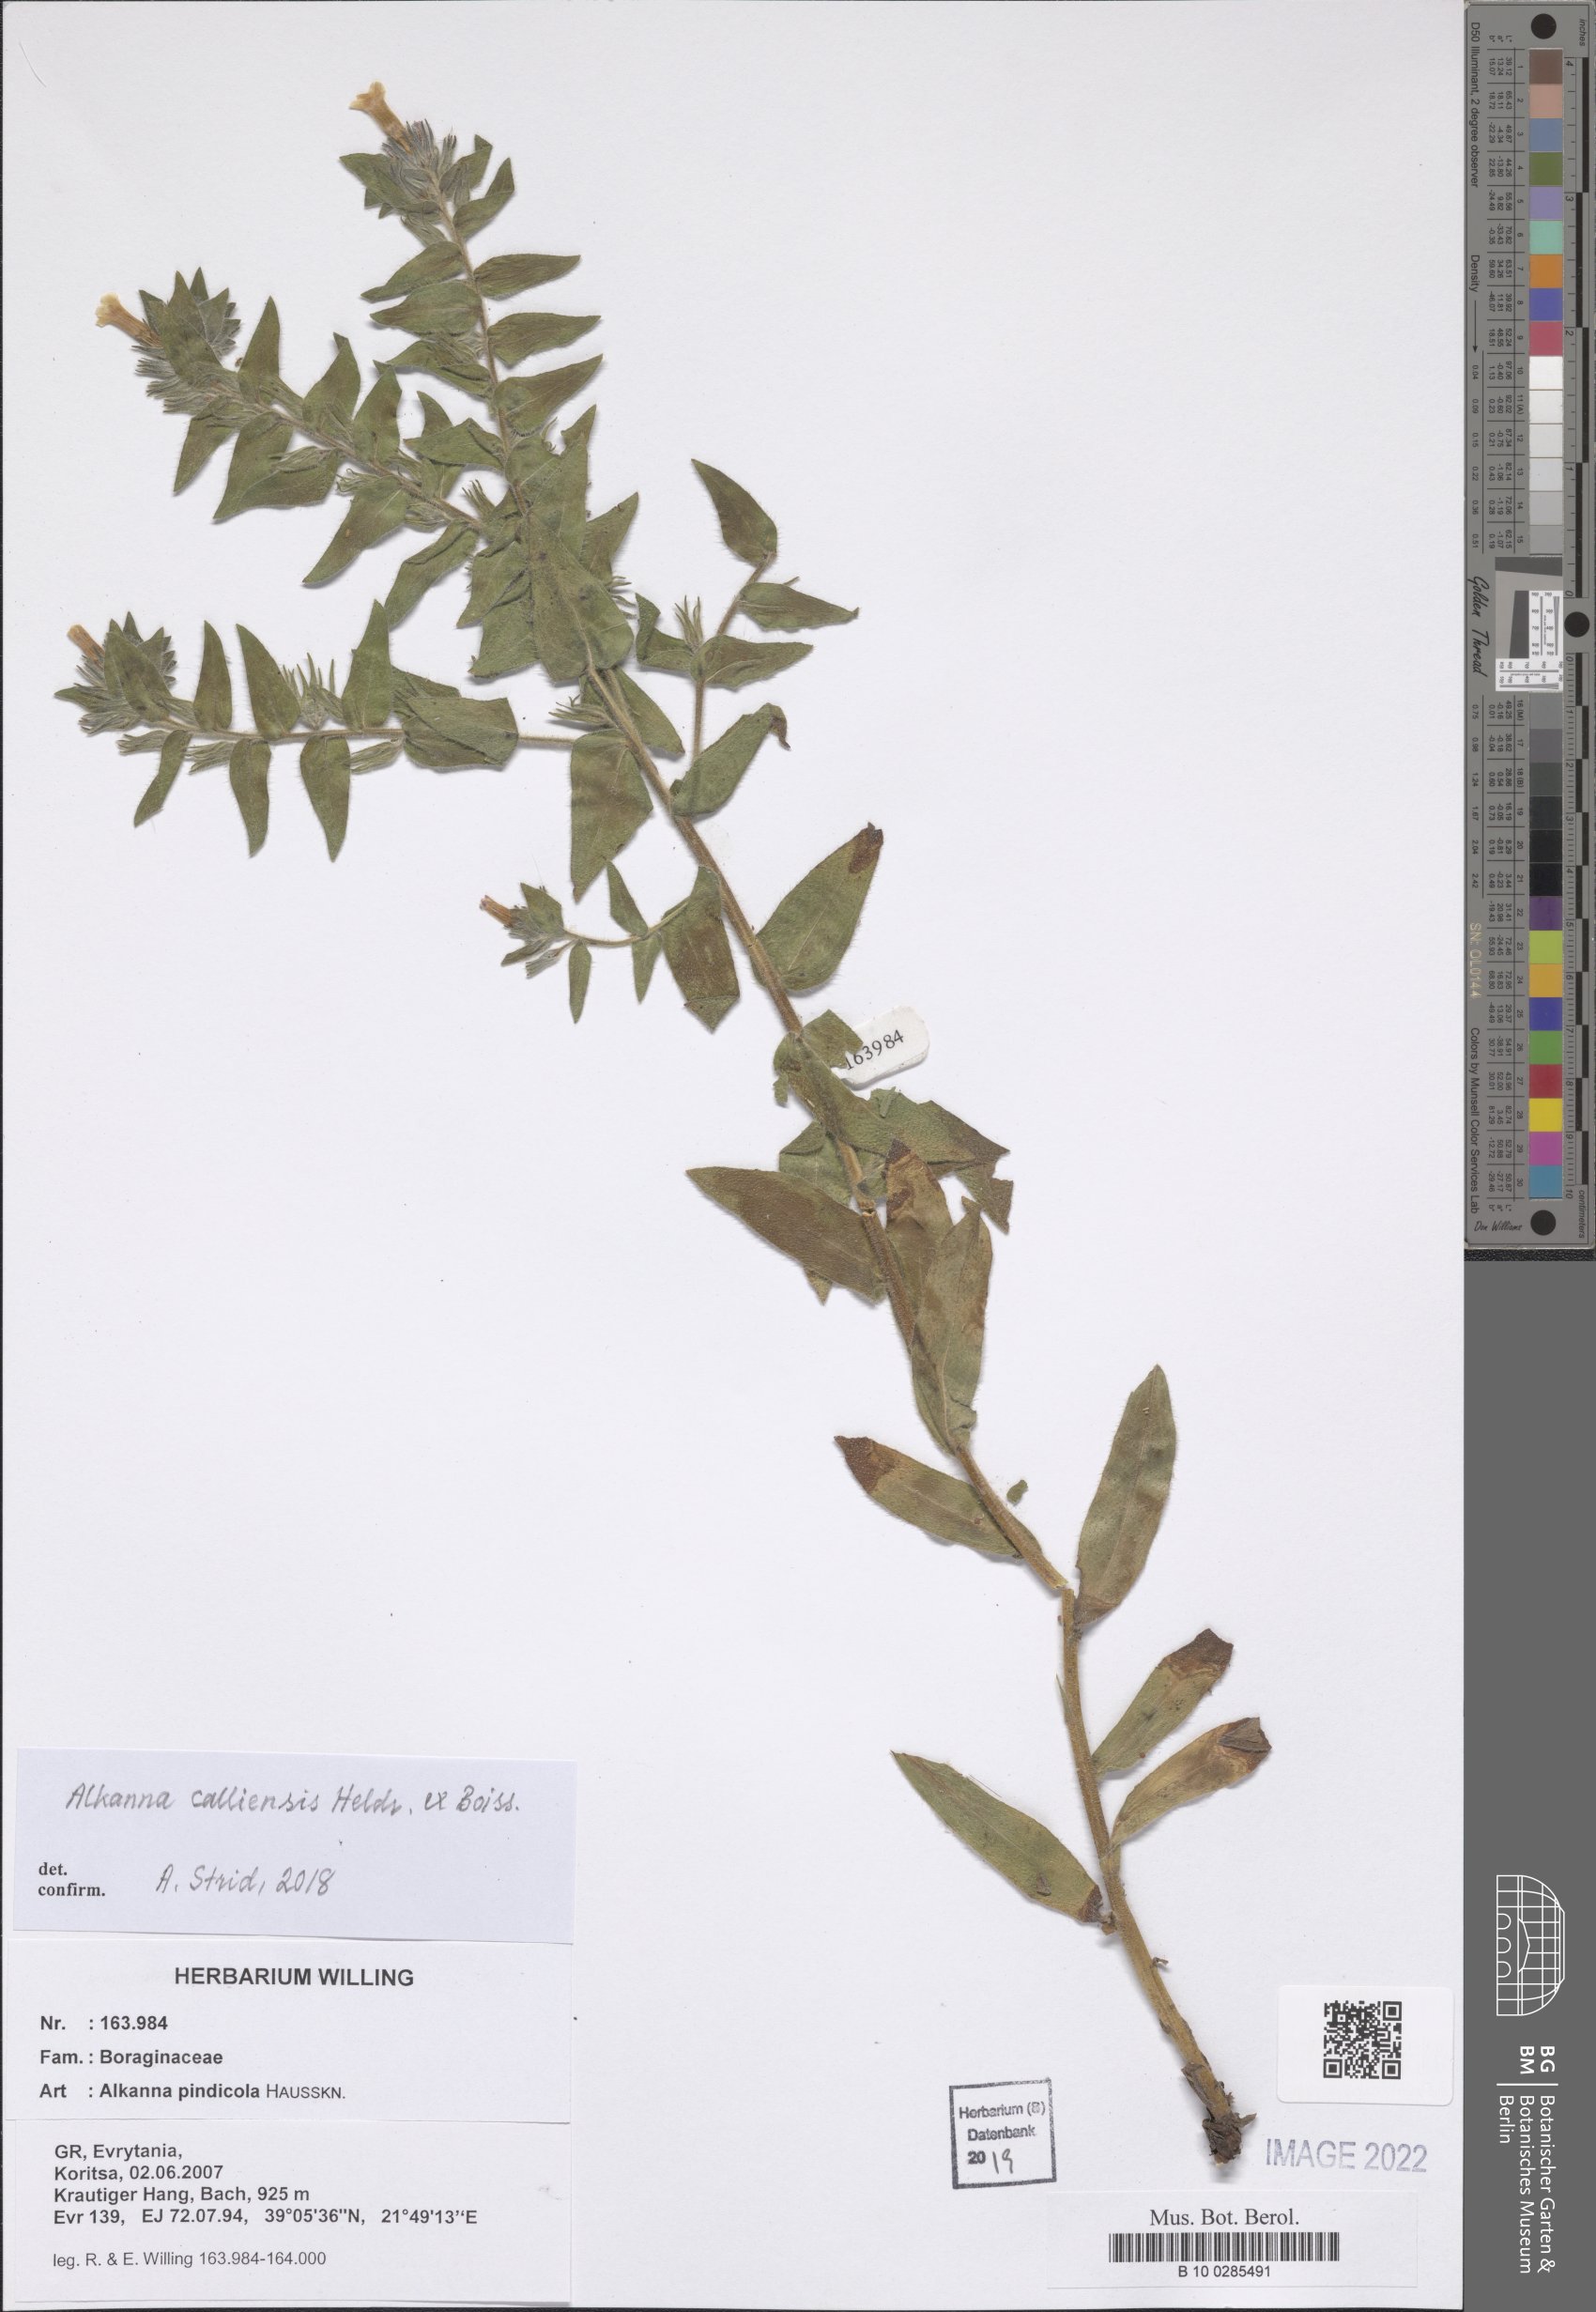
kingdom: Plantae
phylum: Tracheophyta
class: Magnoliopsida
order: Boraginales
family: Boraginaceae
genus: Alkanna
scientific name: Alkanna calliensis
